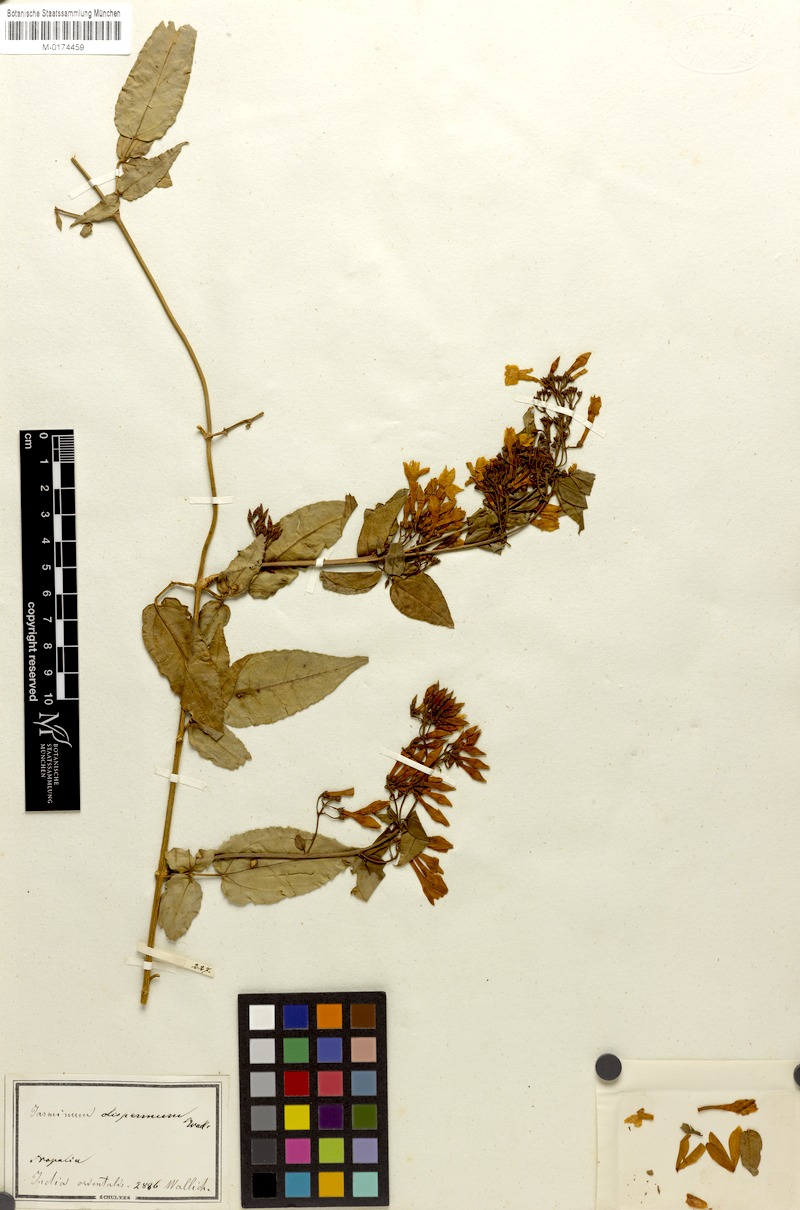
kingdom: Plantae
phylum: Tracheophyta
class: Magnoliopsida
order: Lamiales
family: Oleaceae
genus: Jasminum
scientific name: Jasminum dispermum
